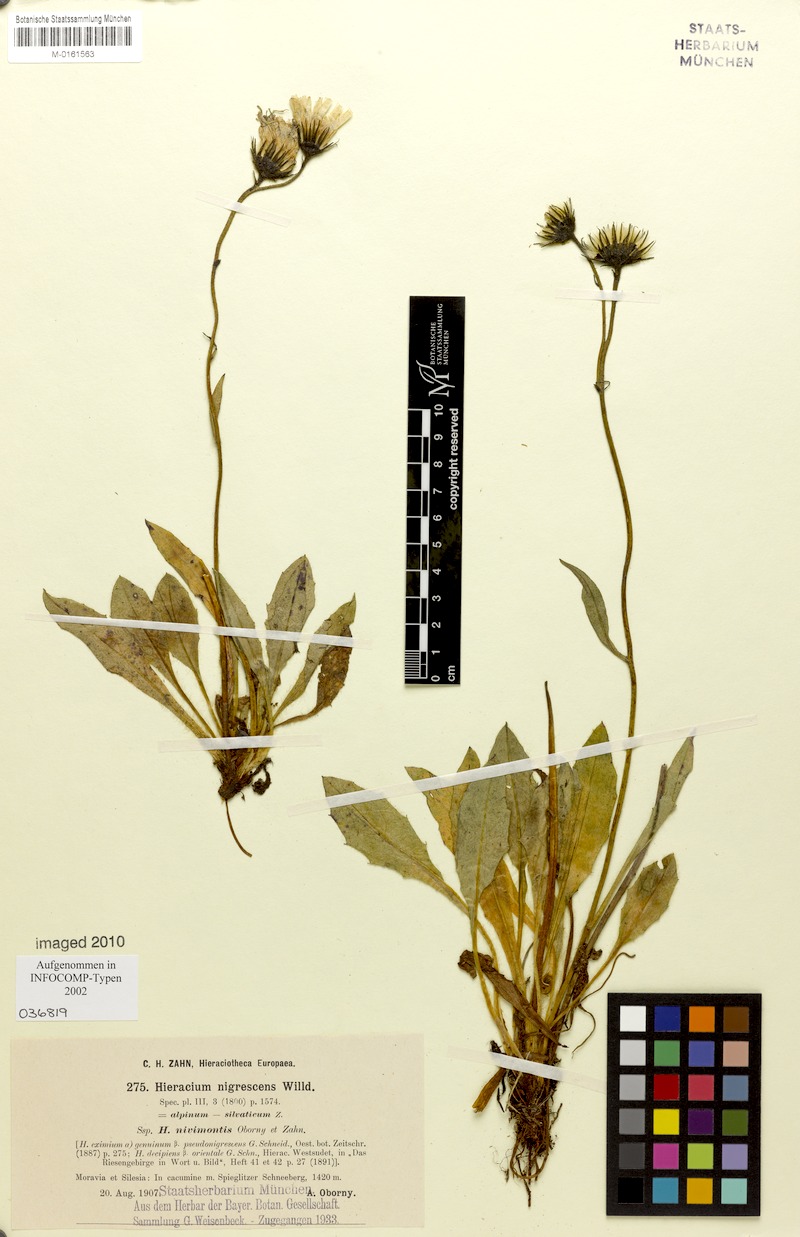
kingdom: Plantae
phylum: Tracheophyta
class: Magnoliopsida
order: Asterales
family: Asteraceae
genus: Hieracium
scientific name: Hieracium nigrescens
